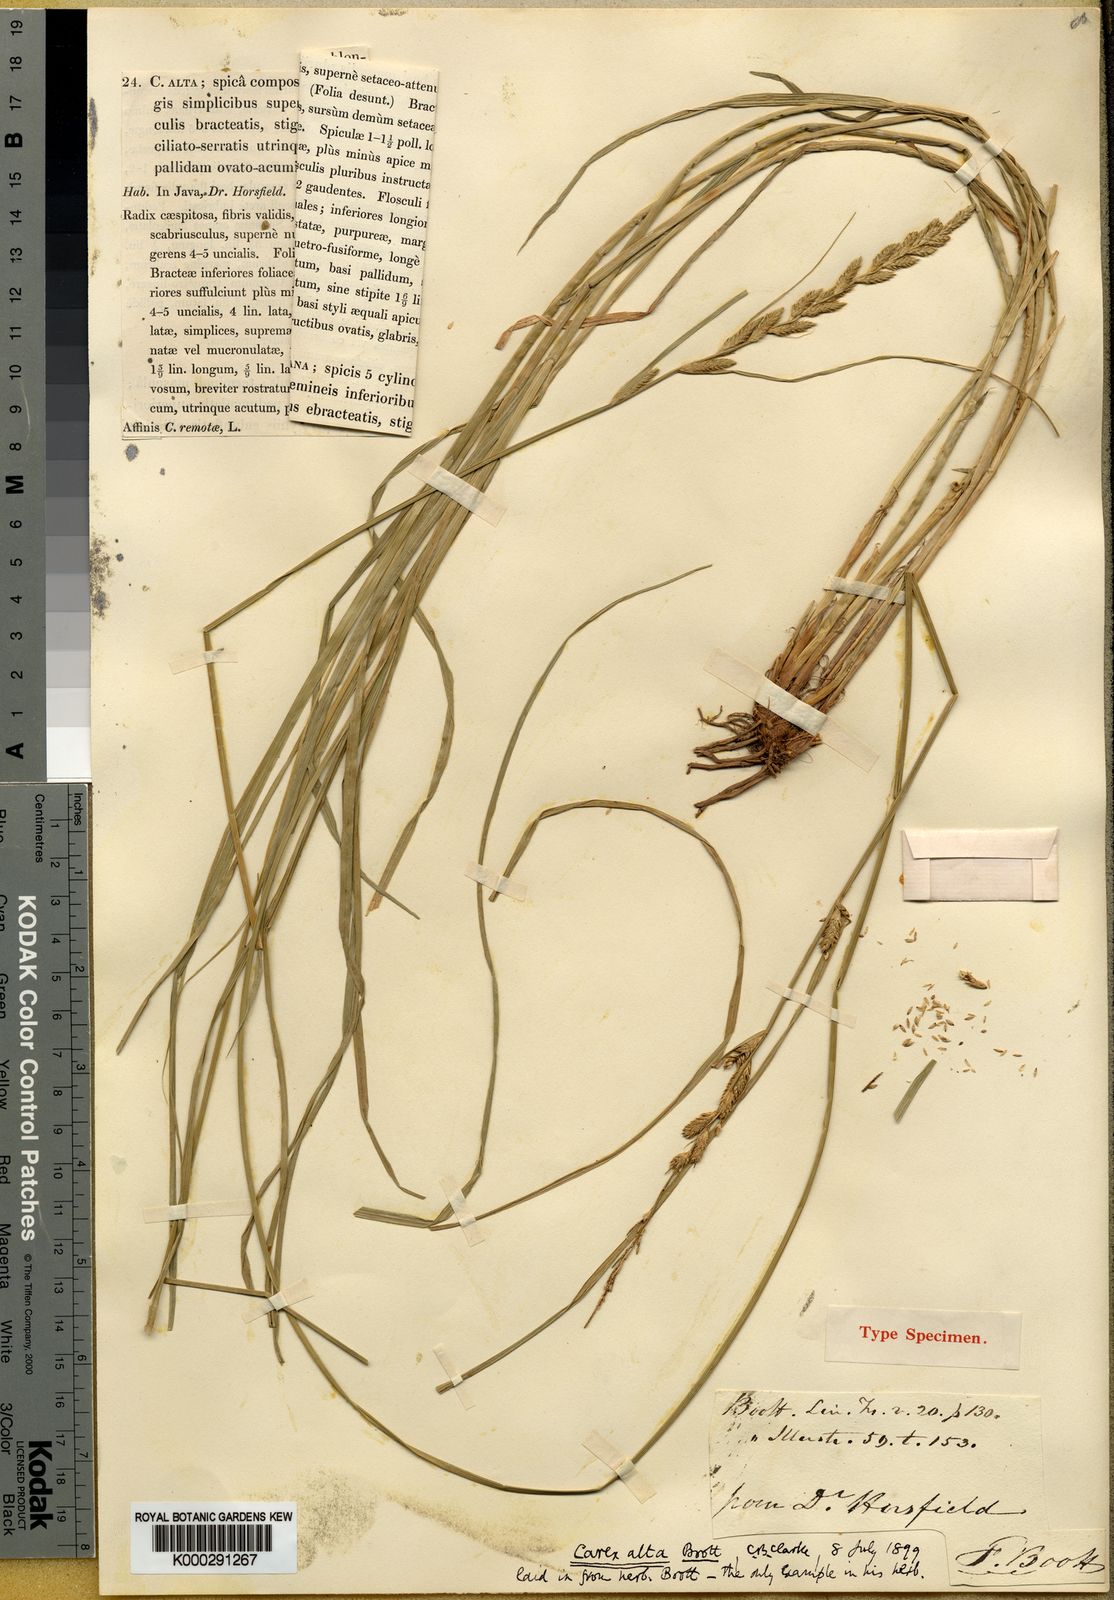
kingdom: Plantae
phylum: Tracheophyta
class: Liliopsida
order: Poales
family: Cyperaceae
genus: Carex
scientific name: Carex remota
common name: Remote sedge
